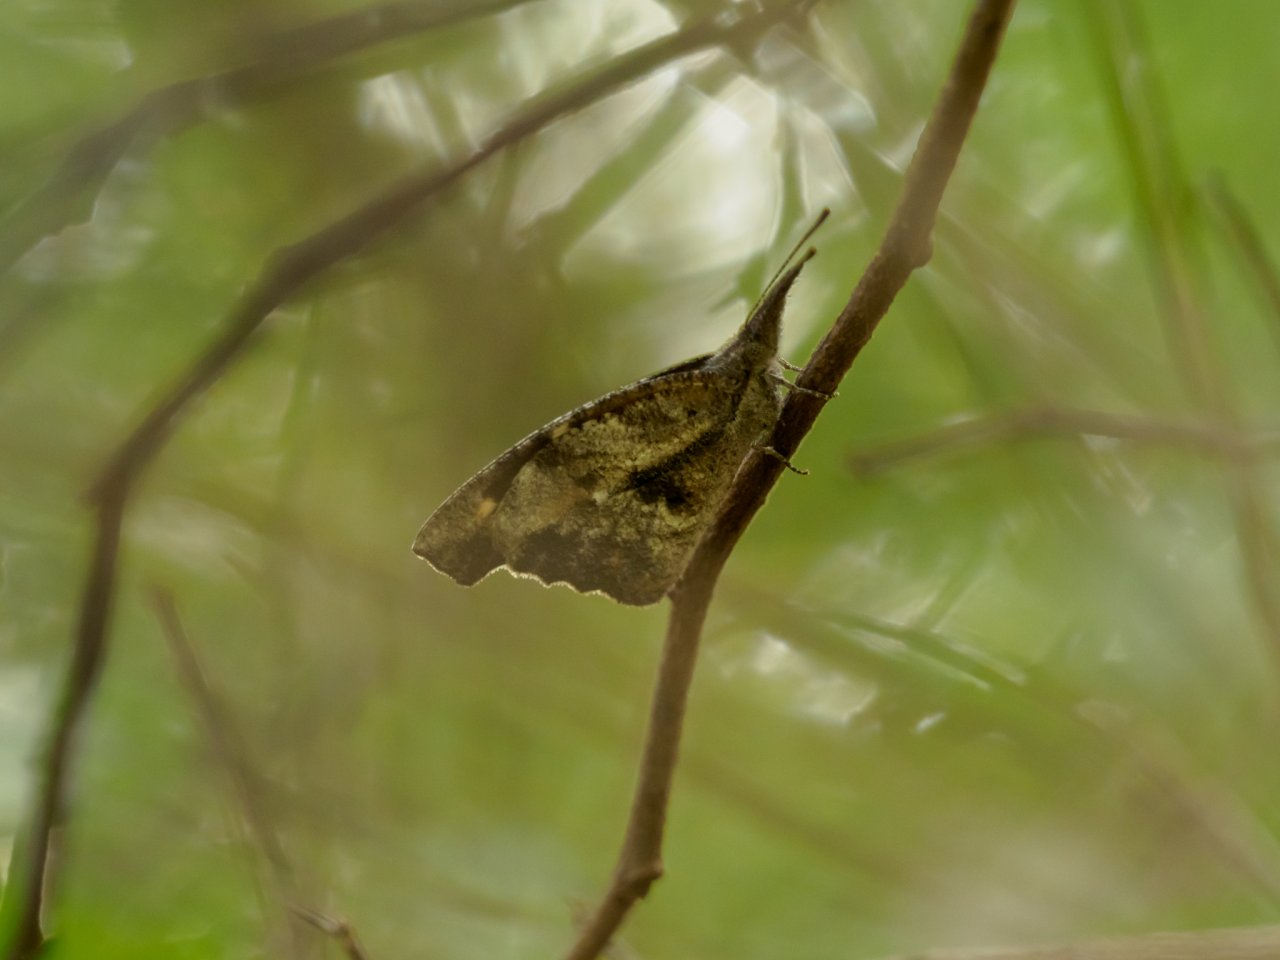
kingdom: Animalia
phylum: Arthropoda
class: Insecta
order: Lepidoptera
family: Nymphalidae
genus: Libytheana
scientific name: Libytheana carinenta
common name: American Snout
